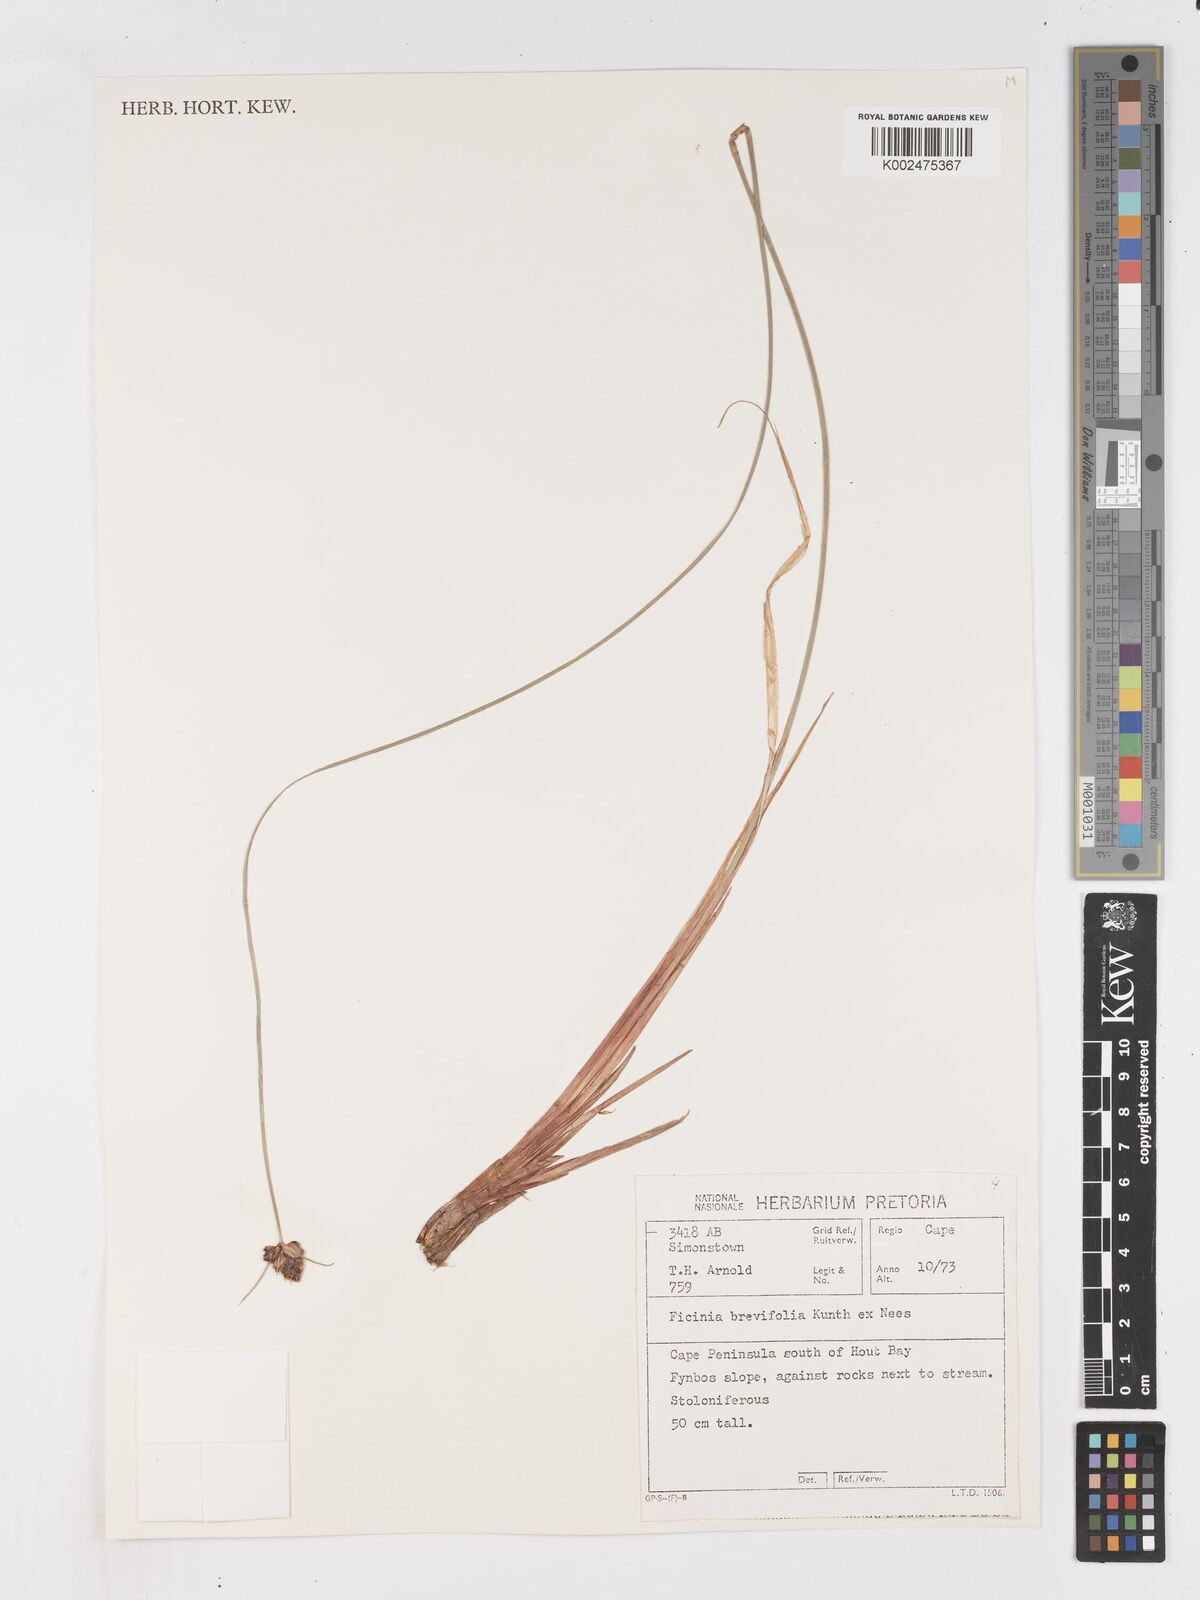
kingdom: Plantae
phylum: Tracheophyta
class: Liliopsida
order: Poales
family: Cyperaceae
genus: Ficinia
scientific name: Ficinia brevifolia
